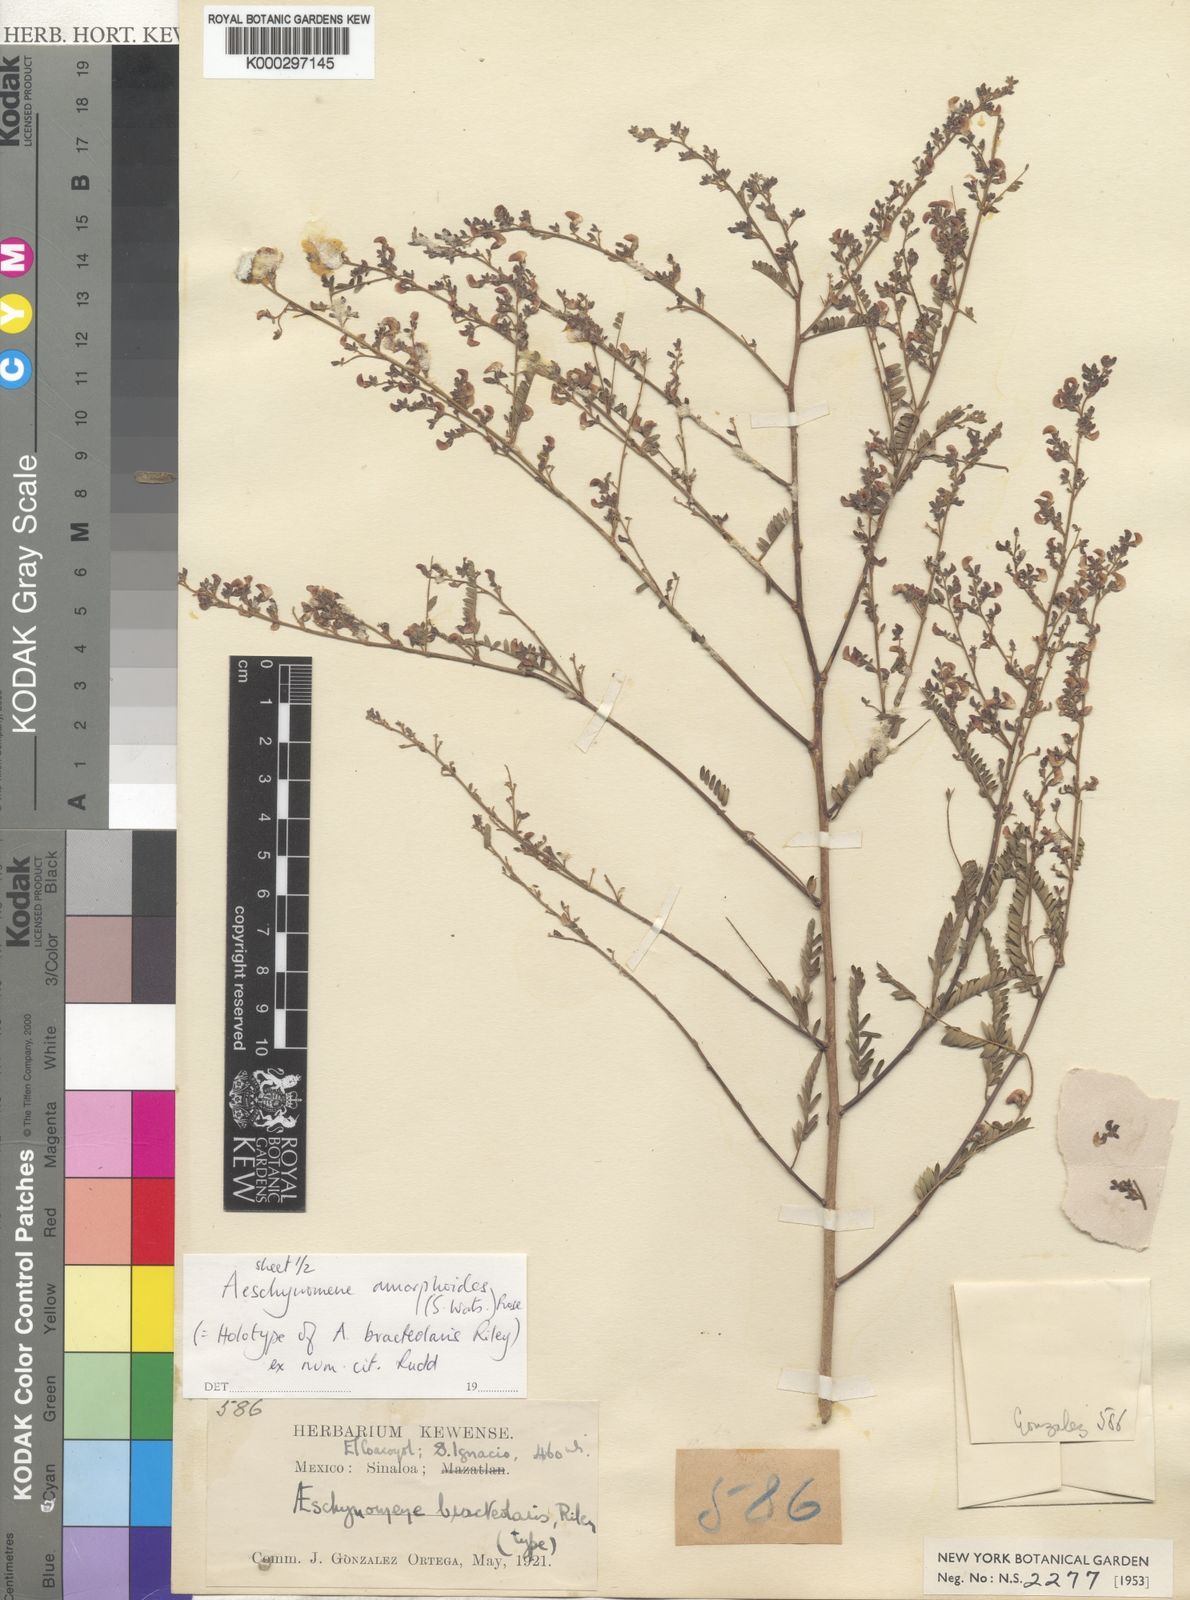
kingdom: Plantae
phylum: Tracheophyta
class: Magnoliopsida
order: Fabales
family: Fabaceae
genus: Ctenodon
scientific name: Ctenodon mucronulatus
